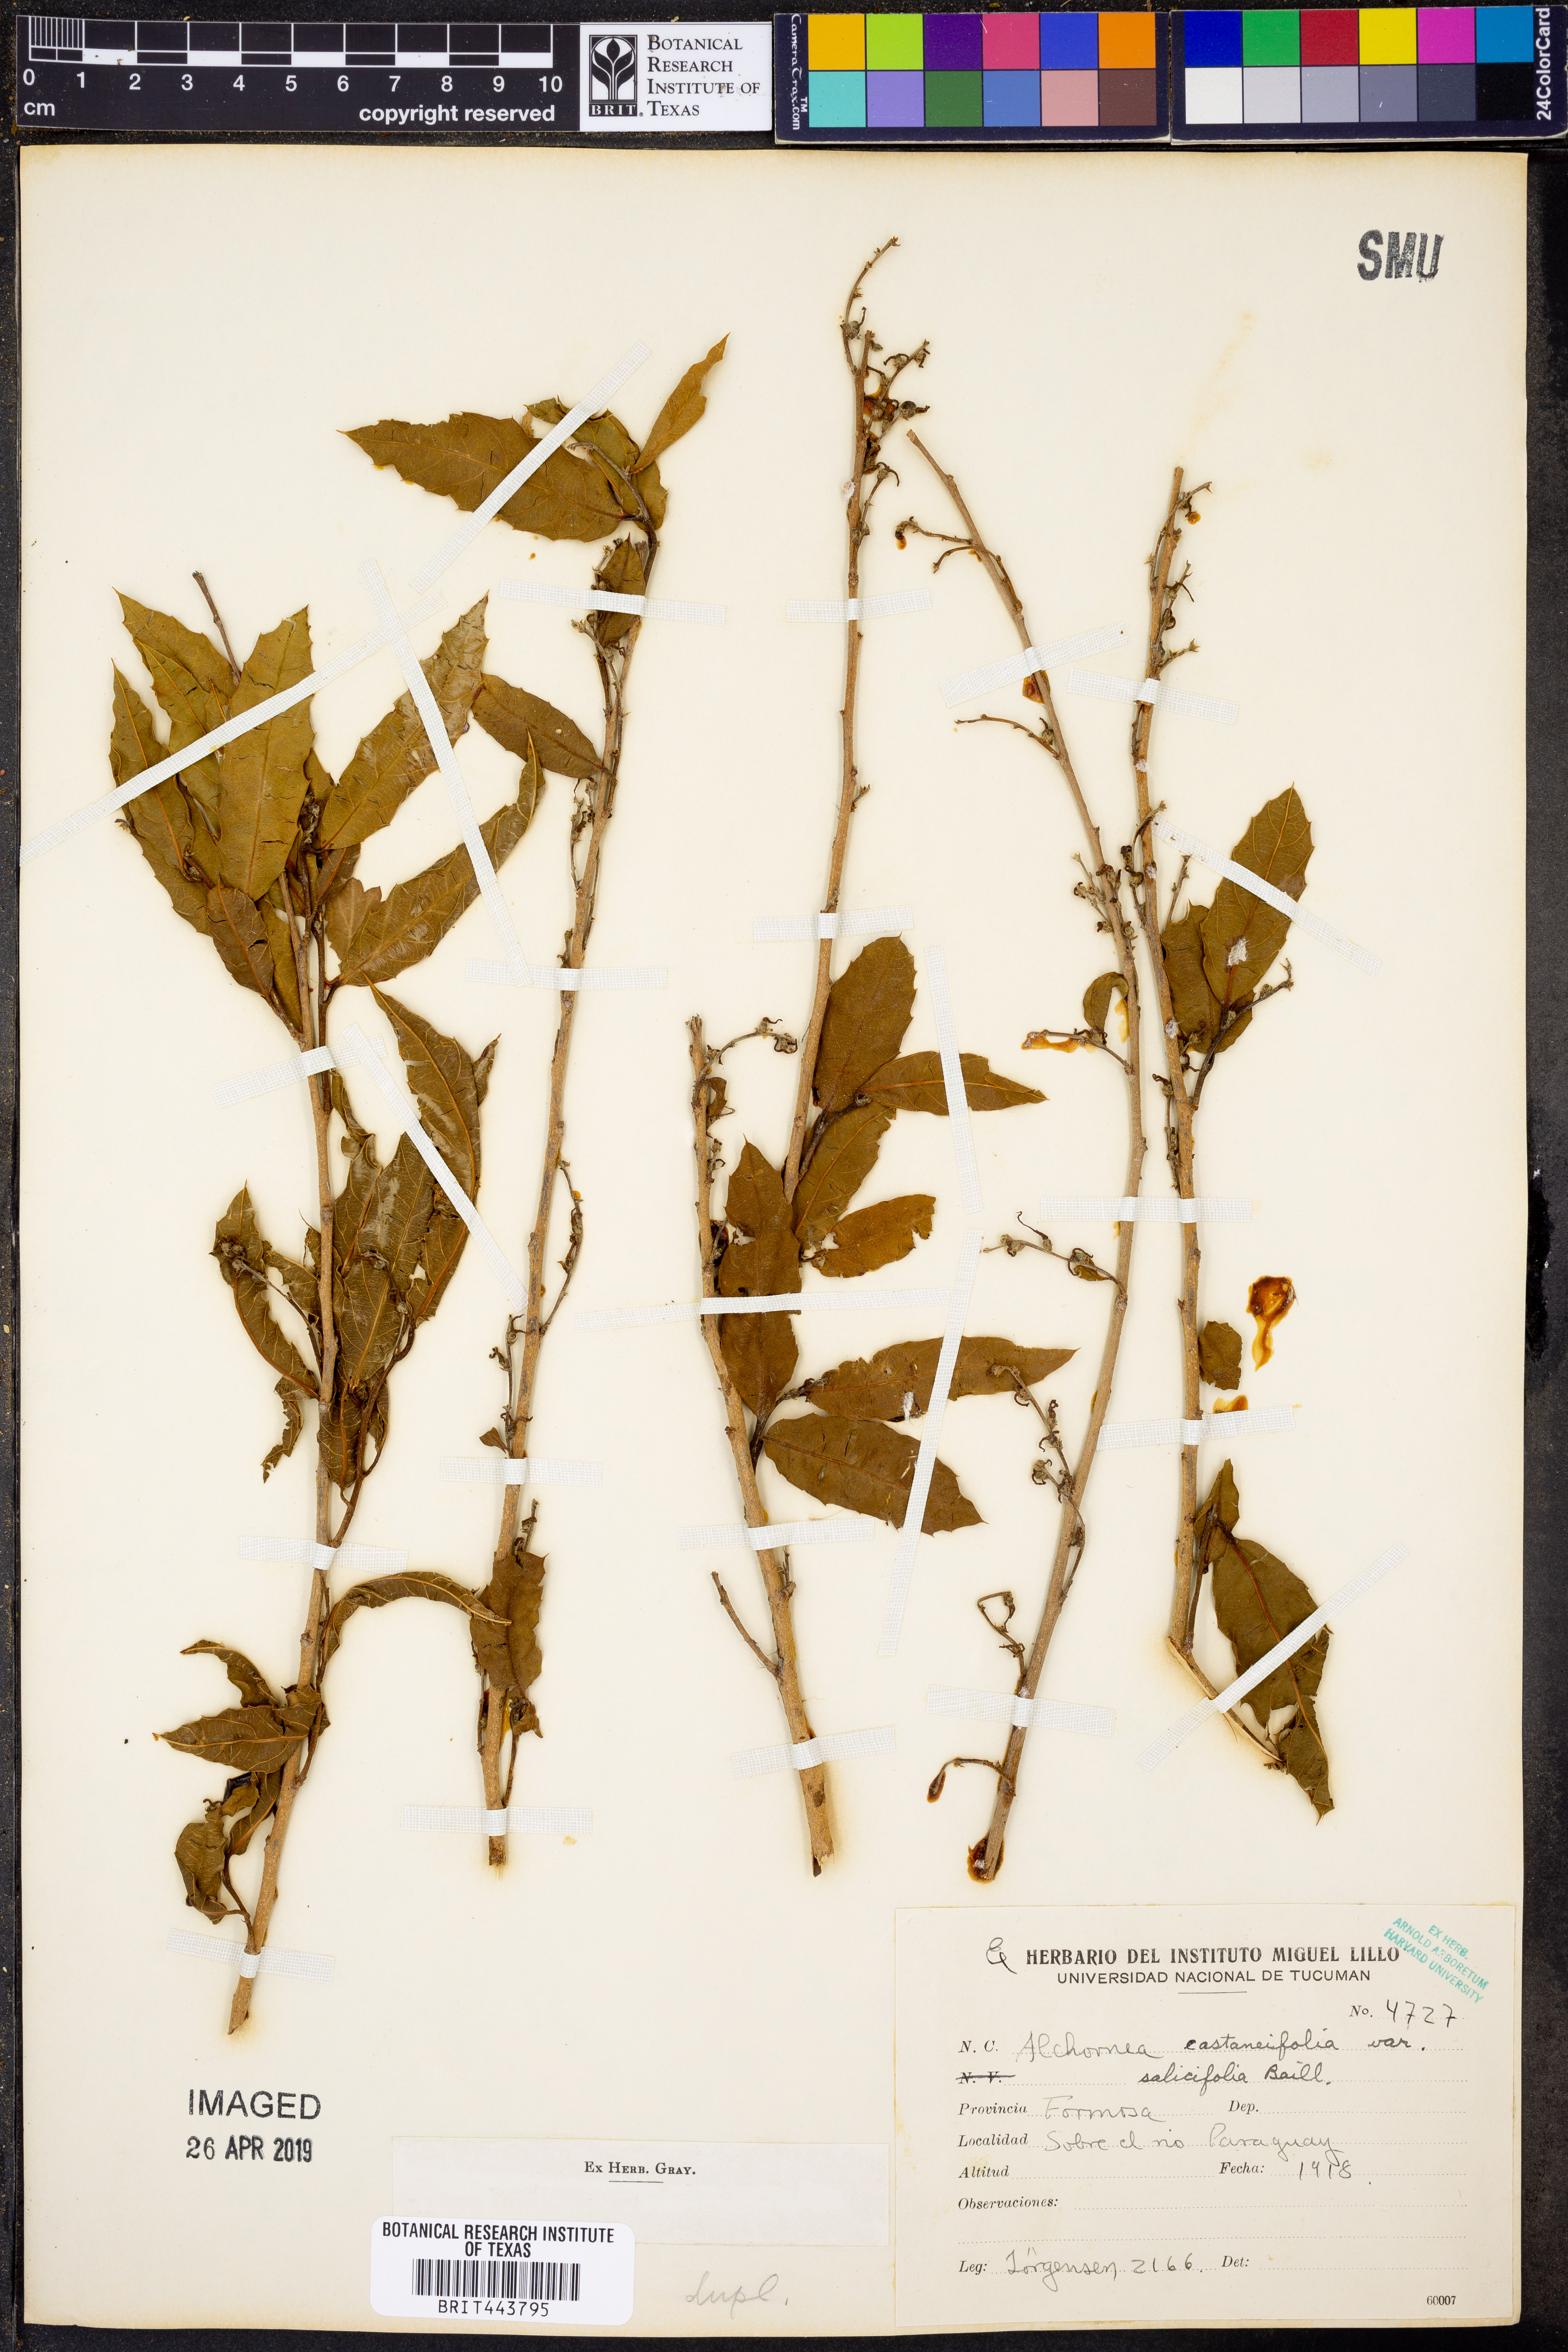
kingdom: Plantae
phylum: Tracheophyta
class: Magnoliopsida
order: Malpighiales
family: Euphorbiaceae
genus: Alchornea
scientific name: Alchornea castaneifolia
